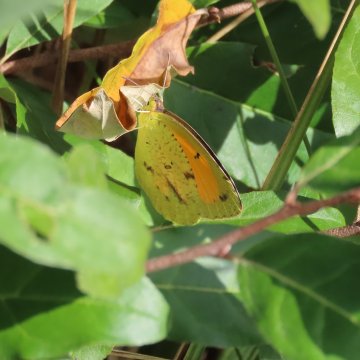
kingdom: Animalia
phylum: Arthropoda
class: Insecta
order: Lepidoptera
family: Pieridae
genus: Abaeis
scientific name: Abaeis nicippe
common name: Sleepy Orange
